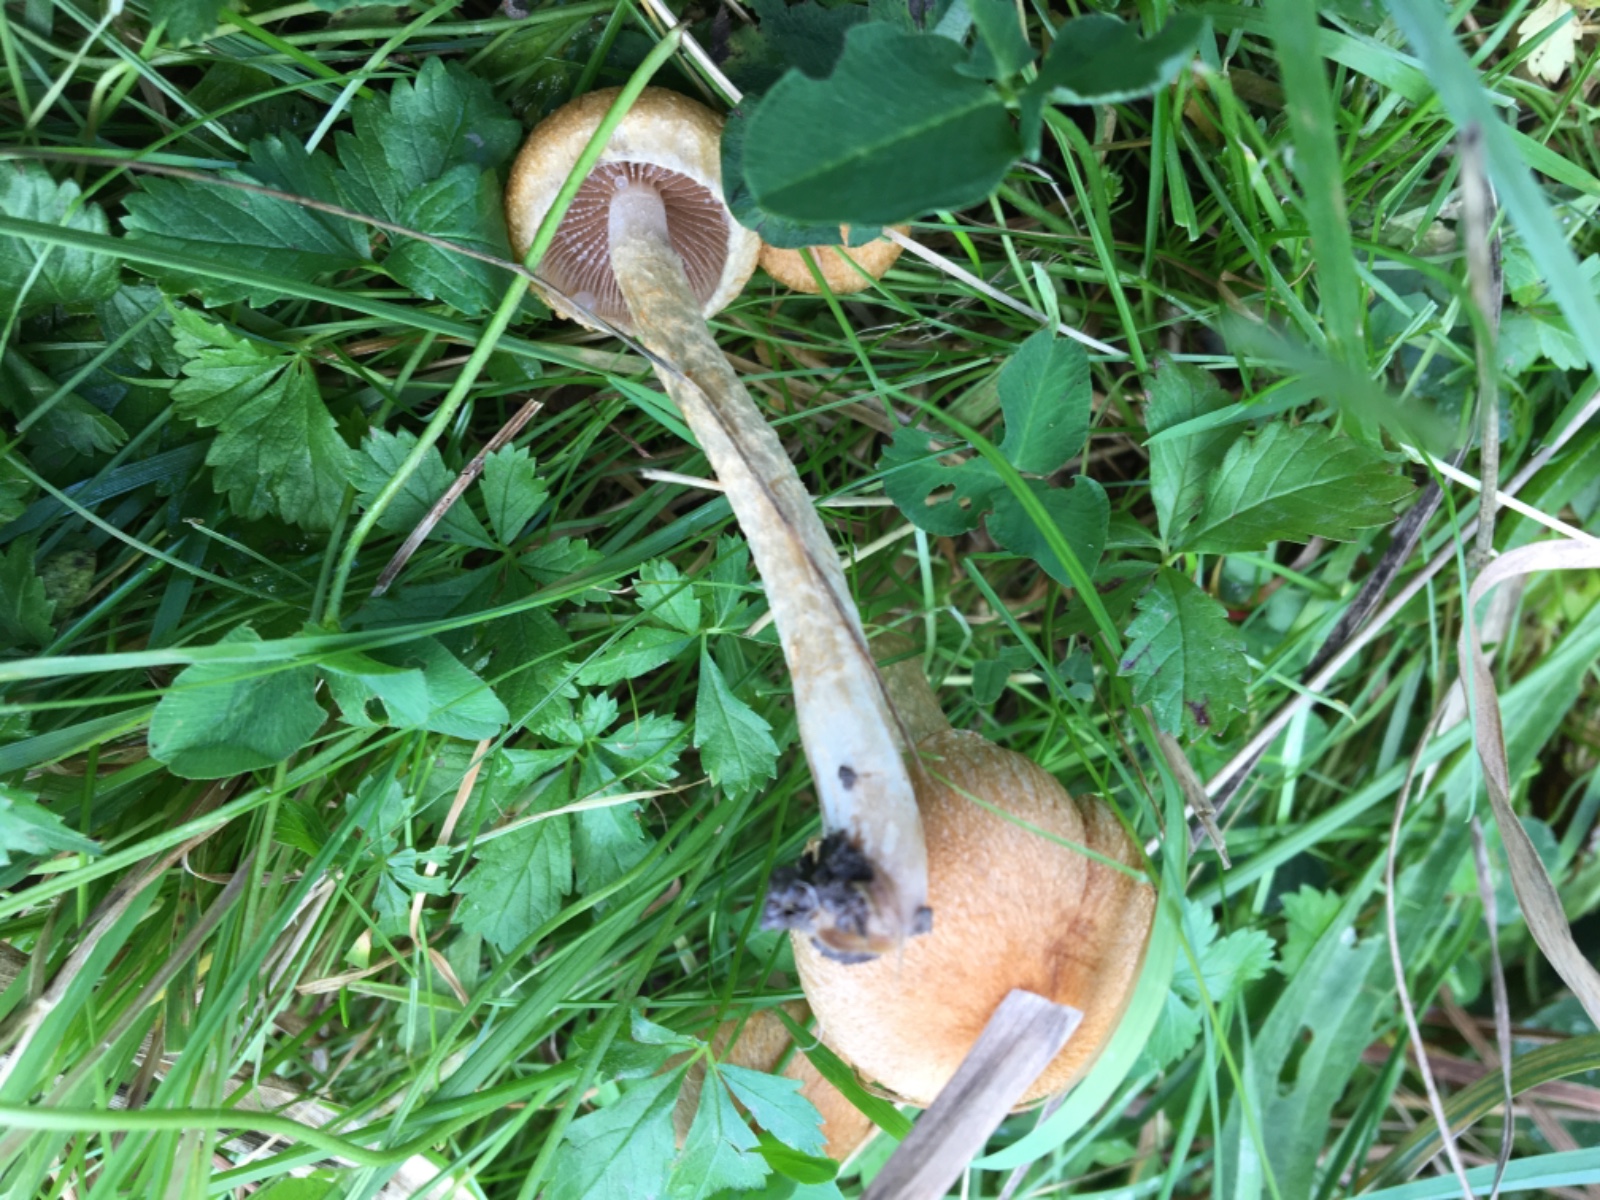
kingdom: Fungi
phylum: Basidiomycota
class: Agaricomycetes
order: Agaricales
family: Psathyrellaceae
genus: Lacrymaria
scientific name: Lacrymaria lacrymabunda
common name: grædende mørkhat
